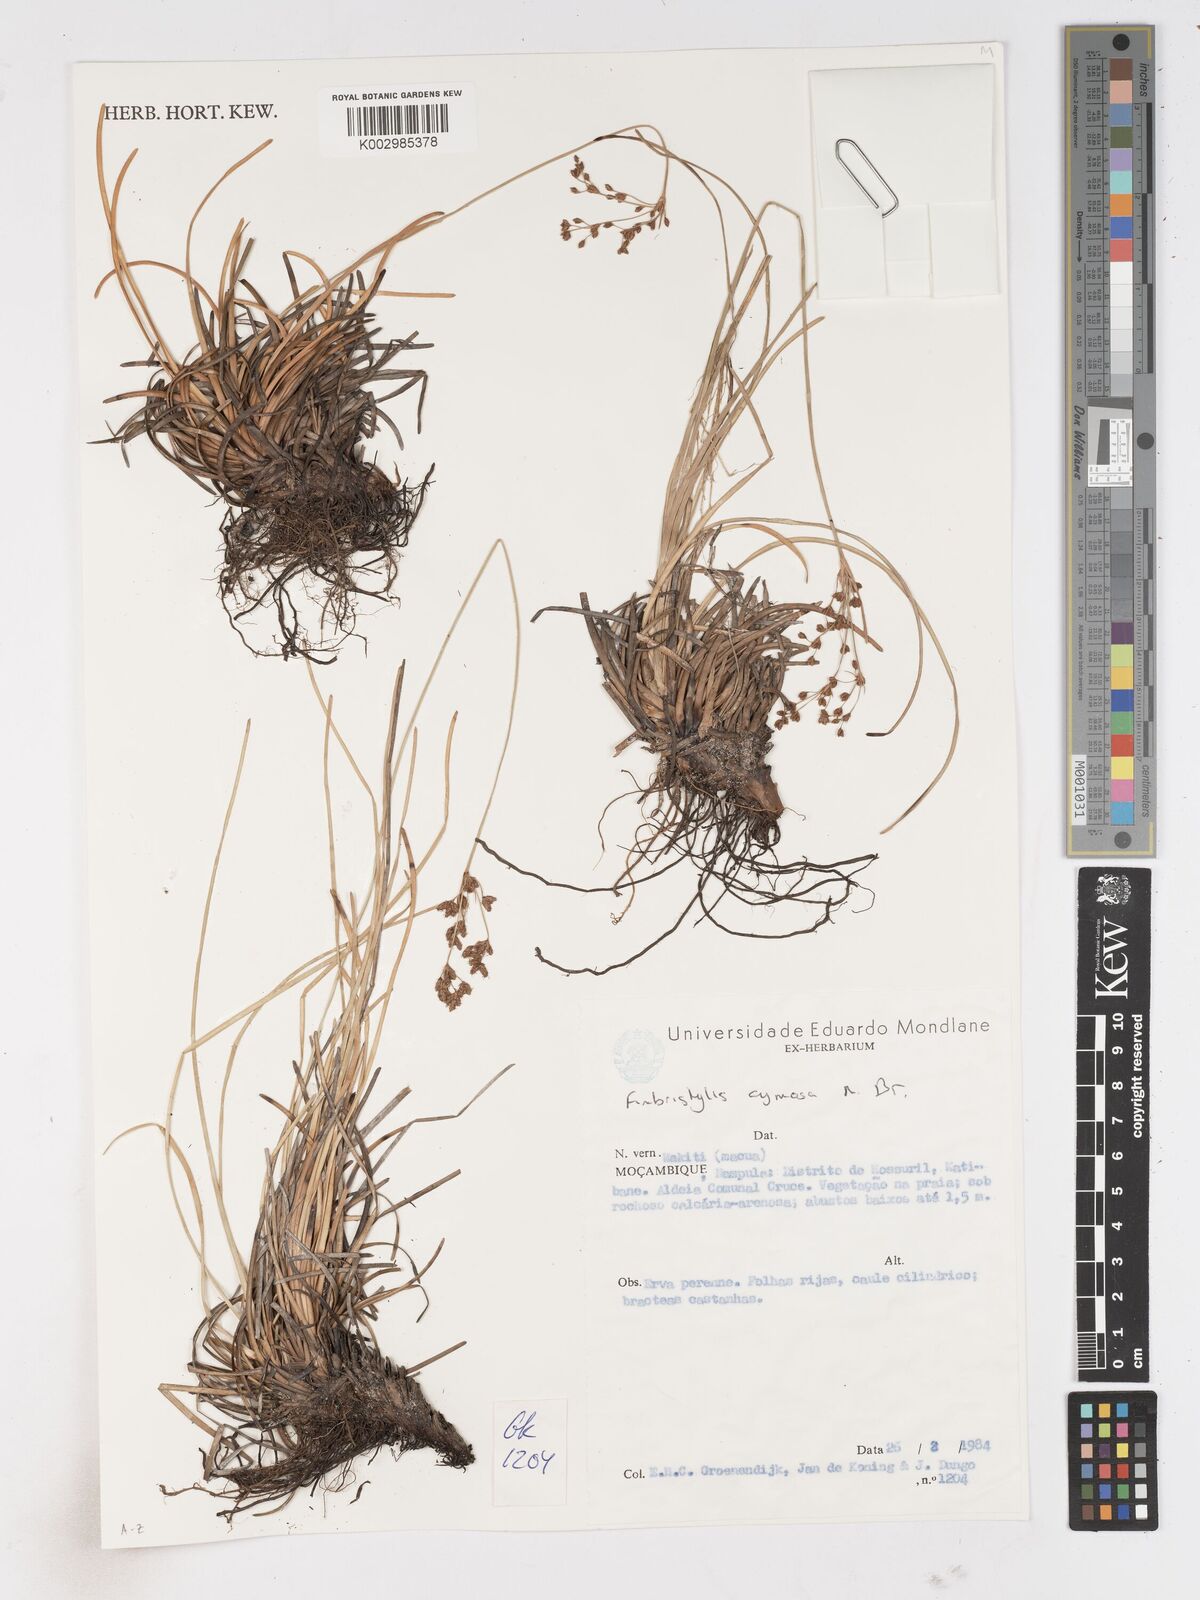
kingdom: Plantae
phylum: Tracheophyta
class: Liliopsida
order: Poales
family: Cyperaceae
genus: Fimbristylis
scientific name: Fimbristylis cymosa
